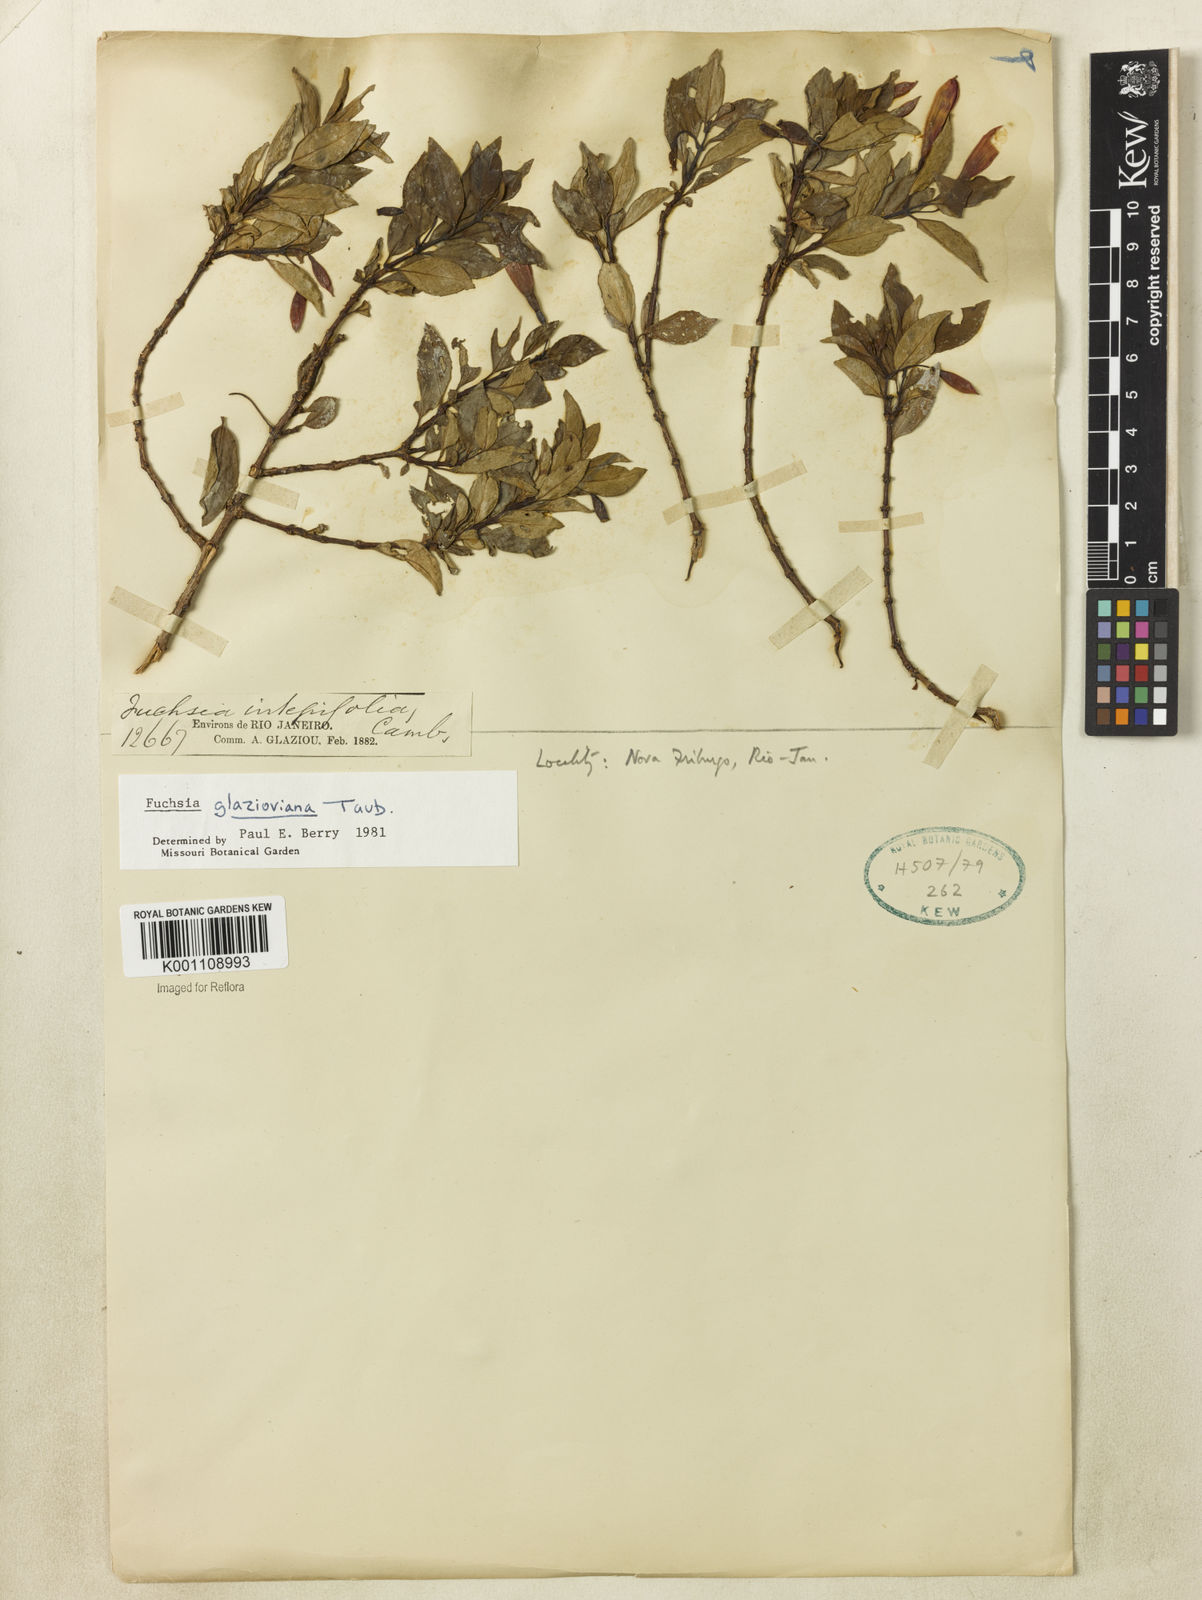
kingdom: Plantae
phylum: Tracheophyta
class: Magnoliopsida
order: Myrtales
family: Onagraceae
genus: Fuchsia
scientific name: Fuchsia glazioviana
